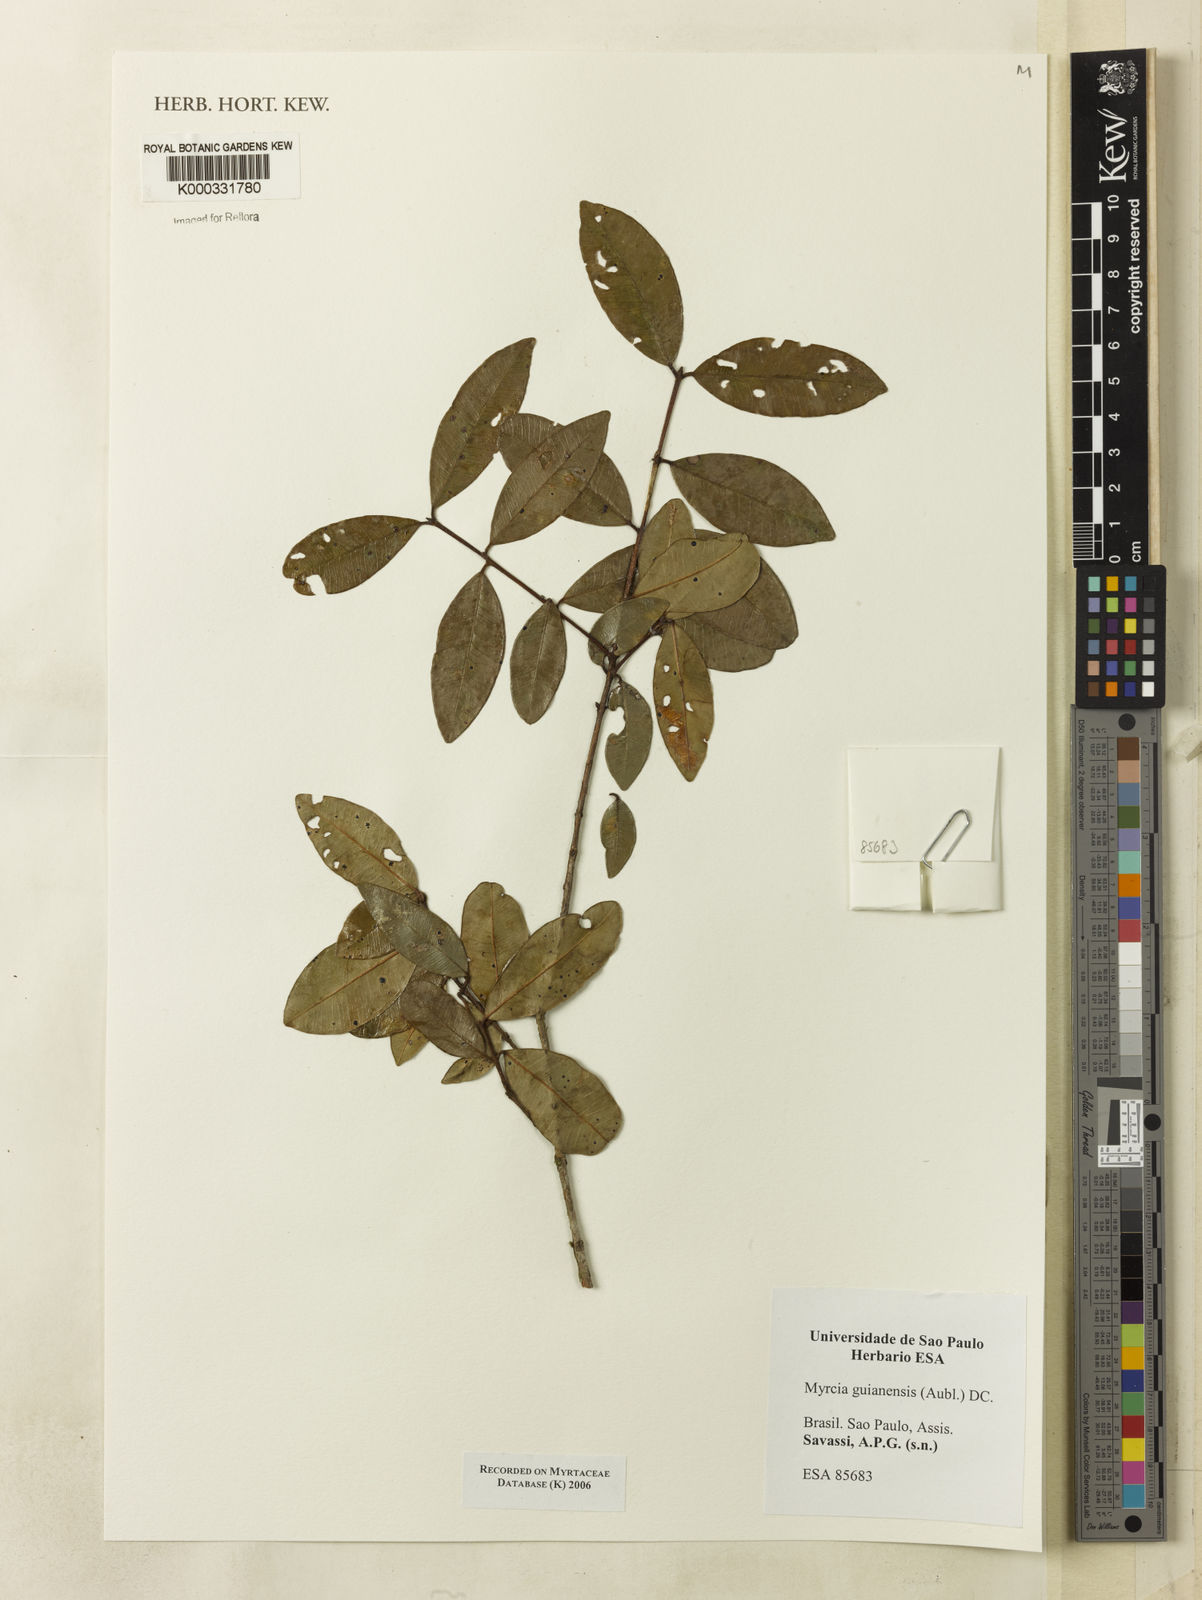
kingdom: Plantae
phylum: Tracheophyta
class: Magnoliopsida
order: Myrtales
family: Myrtaceae
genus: Myrcia
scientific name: Myrcia guianensis
